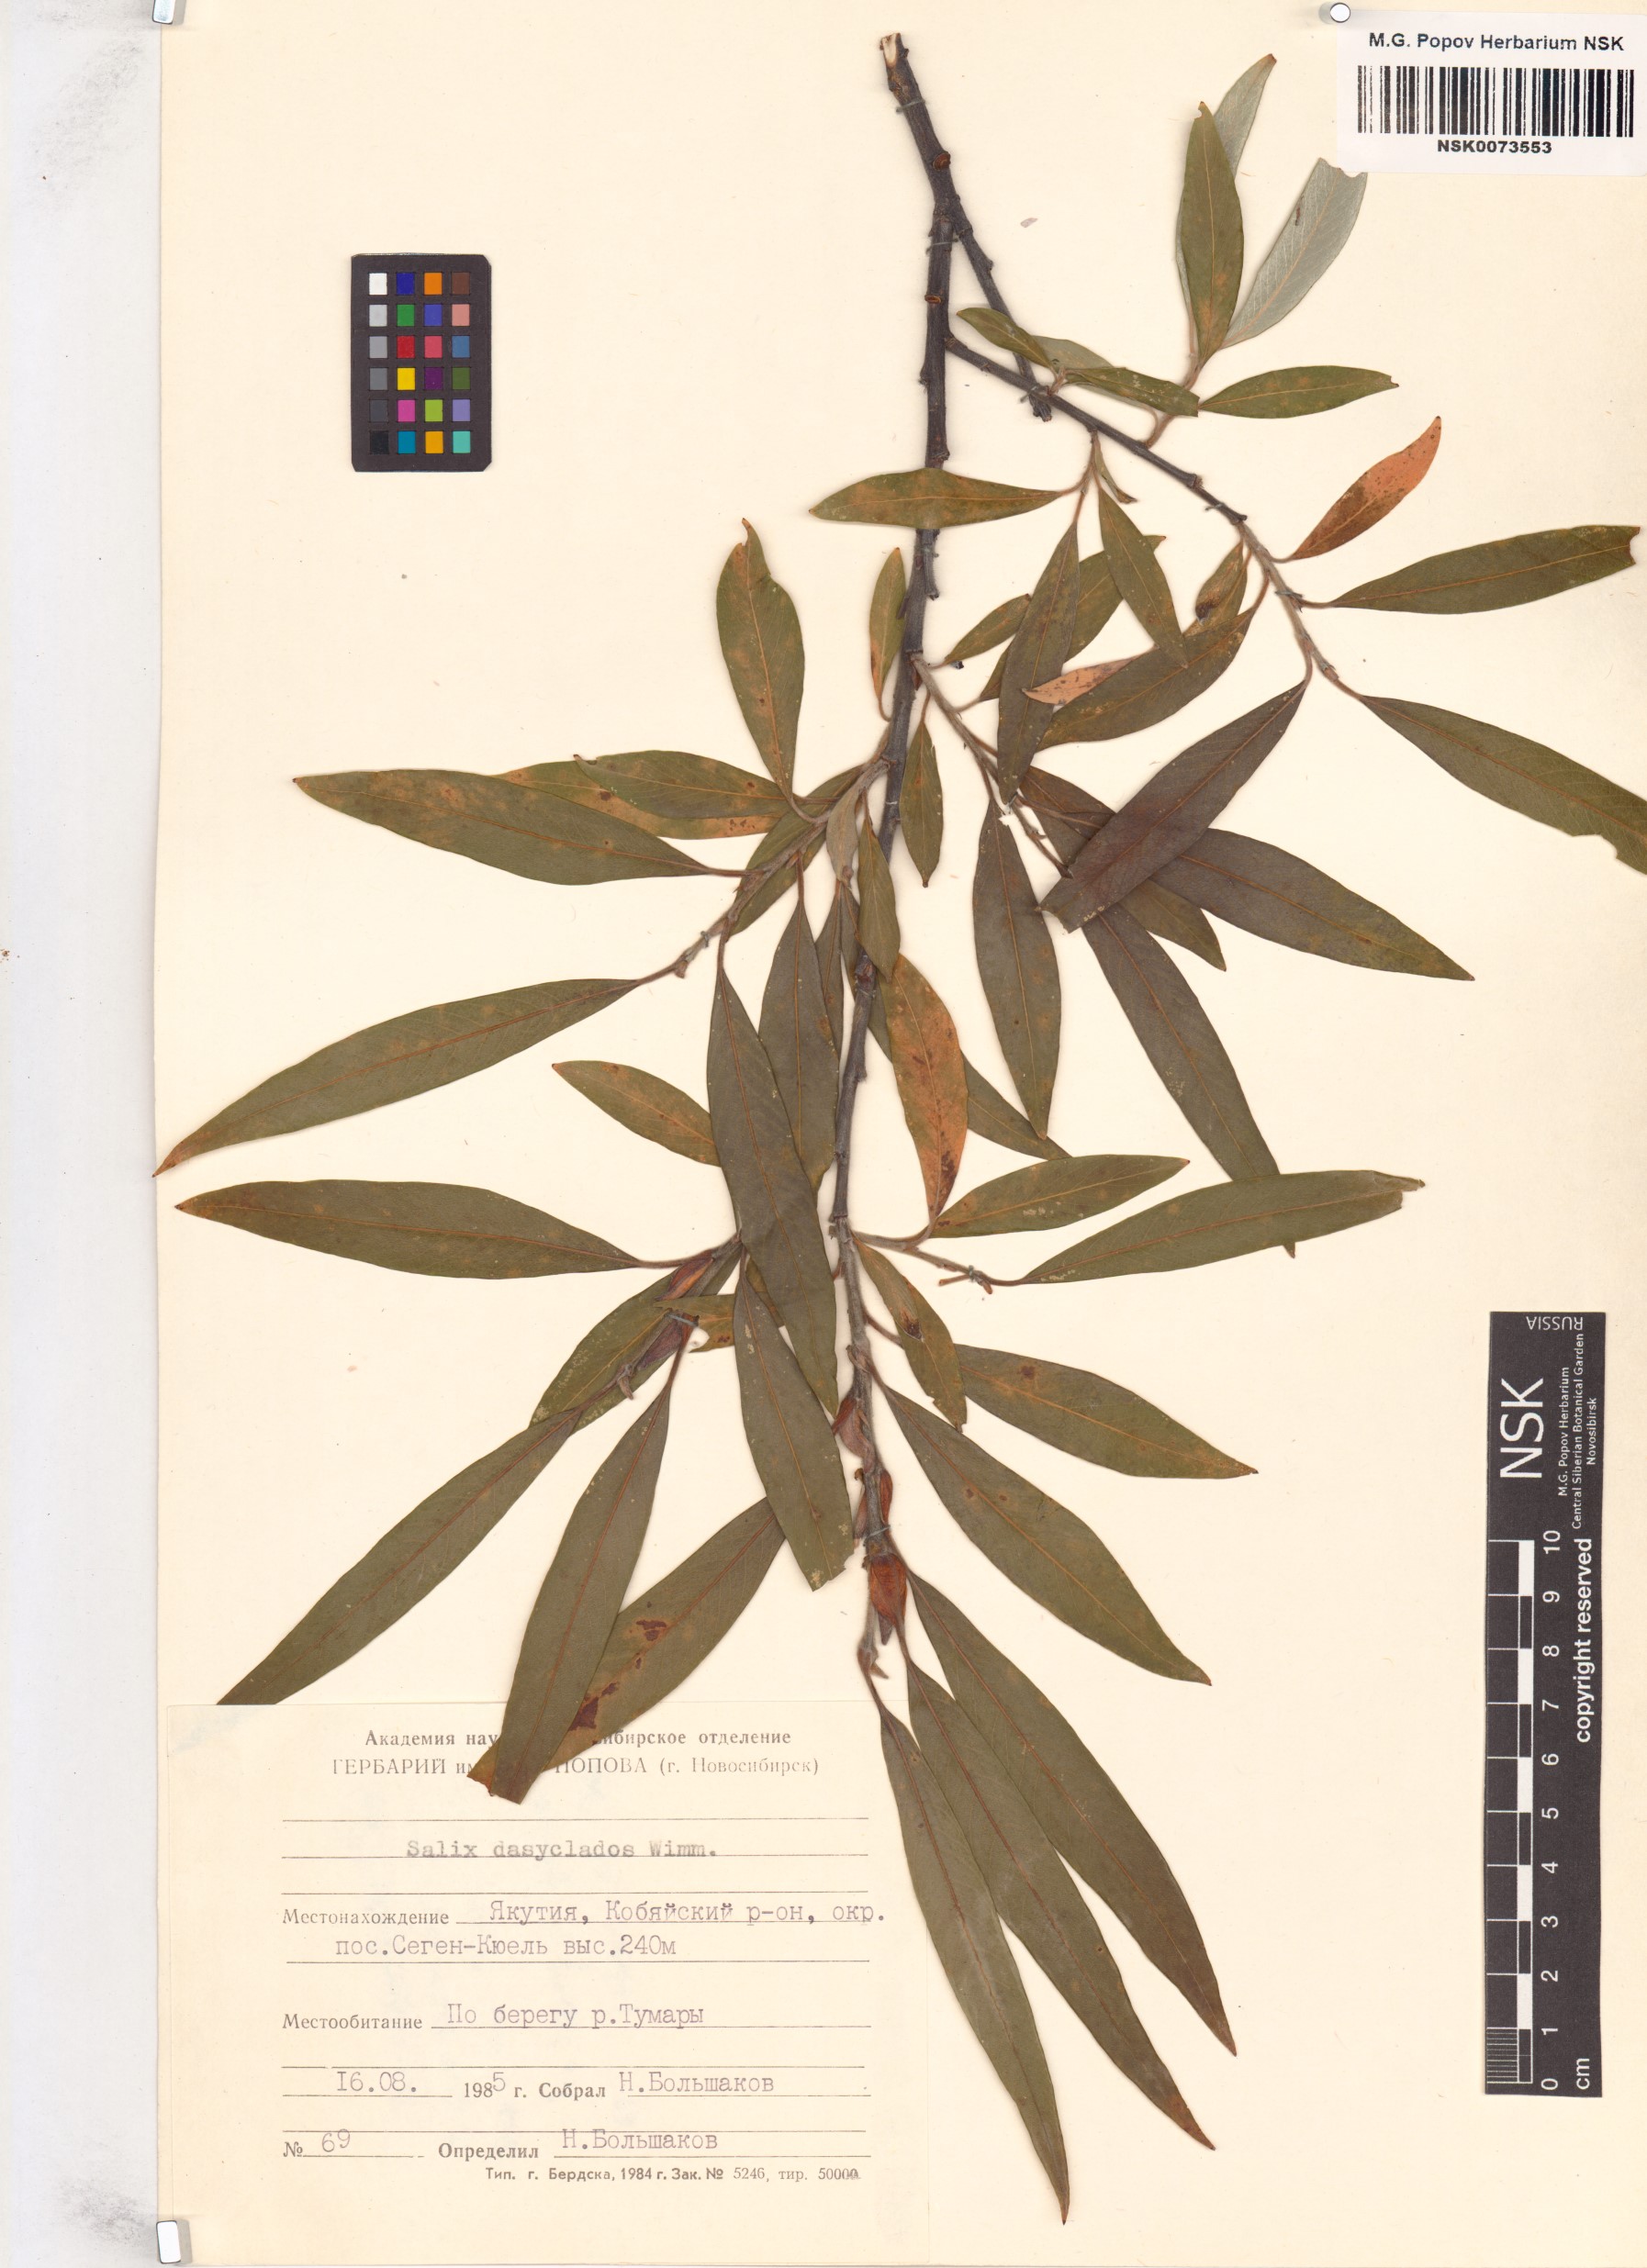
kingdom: Plantae
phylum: Tracheophyta
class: Magnoliopsida
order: Malpighiales
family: Salicaceae
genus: Salix
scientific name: Salix gmelinii
